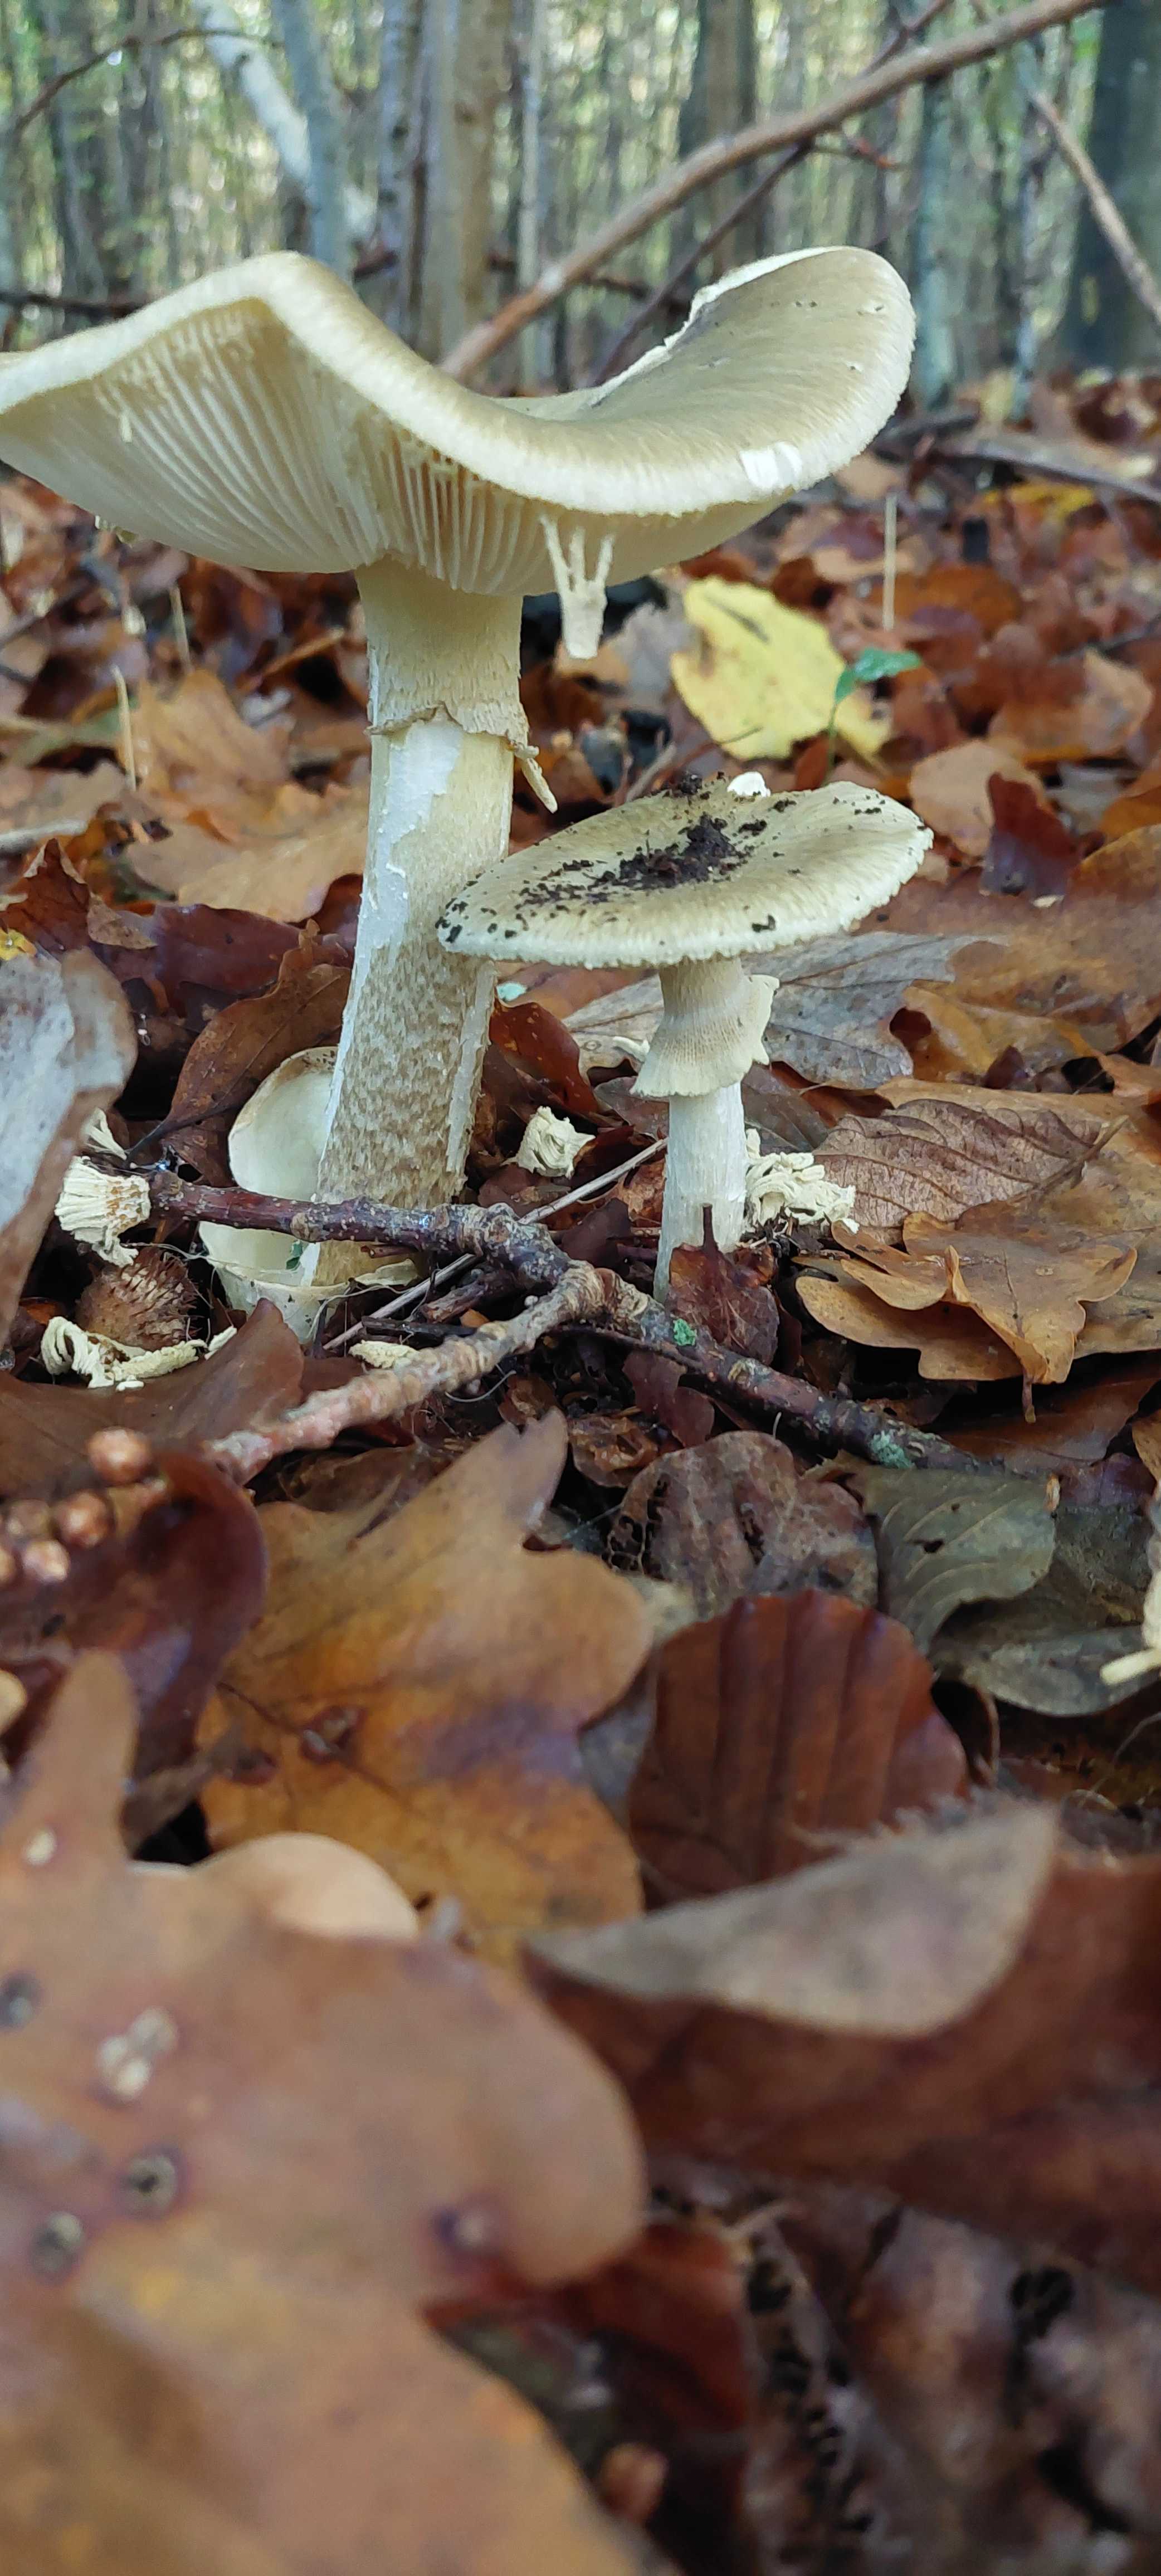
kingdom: Fungi
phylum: Basidiomycota
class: Agaricomycetes
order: Agaricales
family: Amanitaceae
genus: Amanita
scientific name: Amanita phalloides
